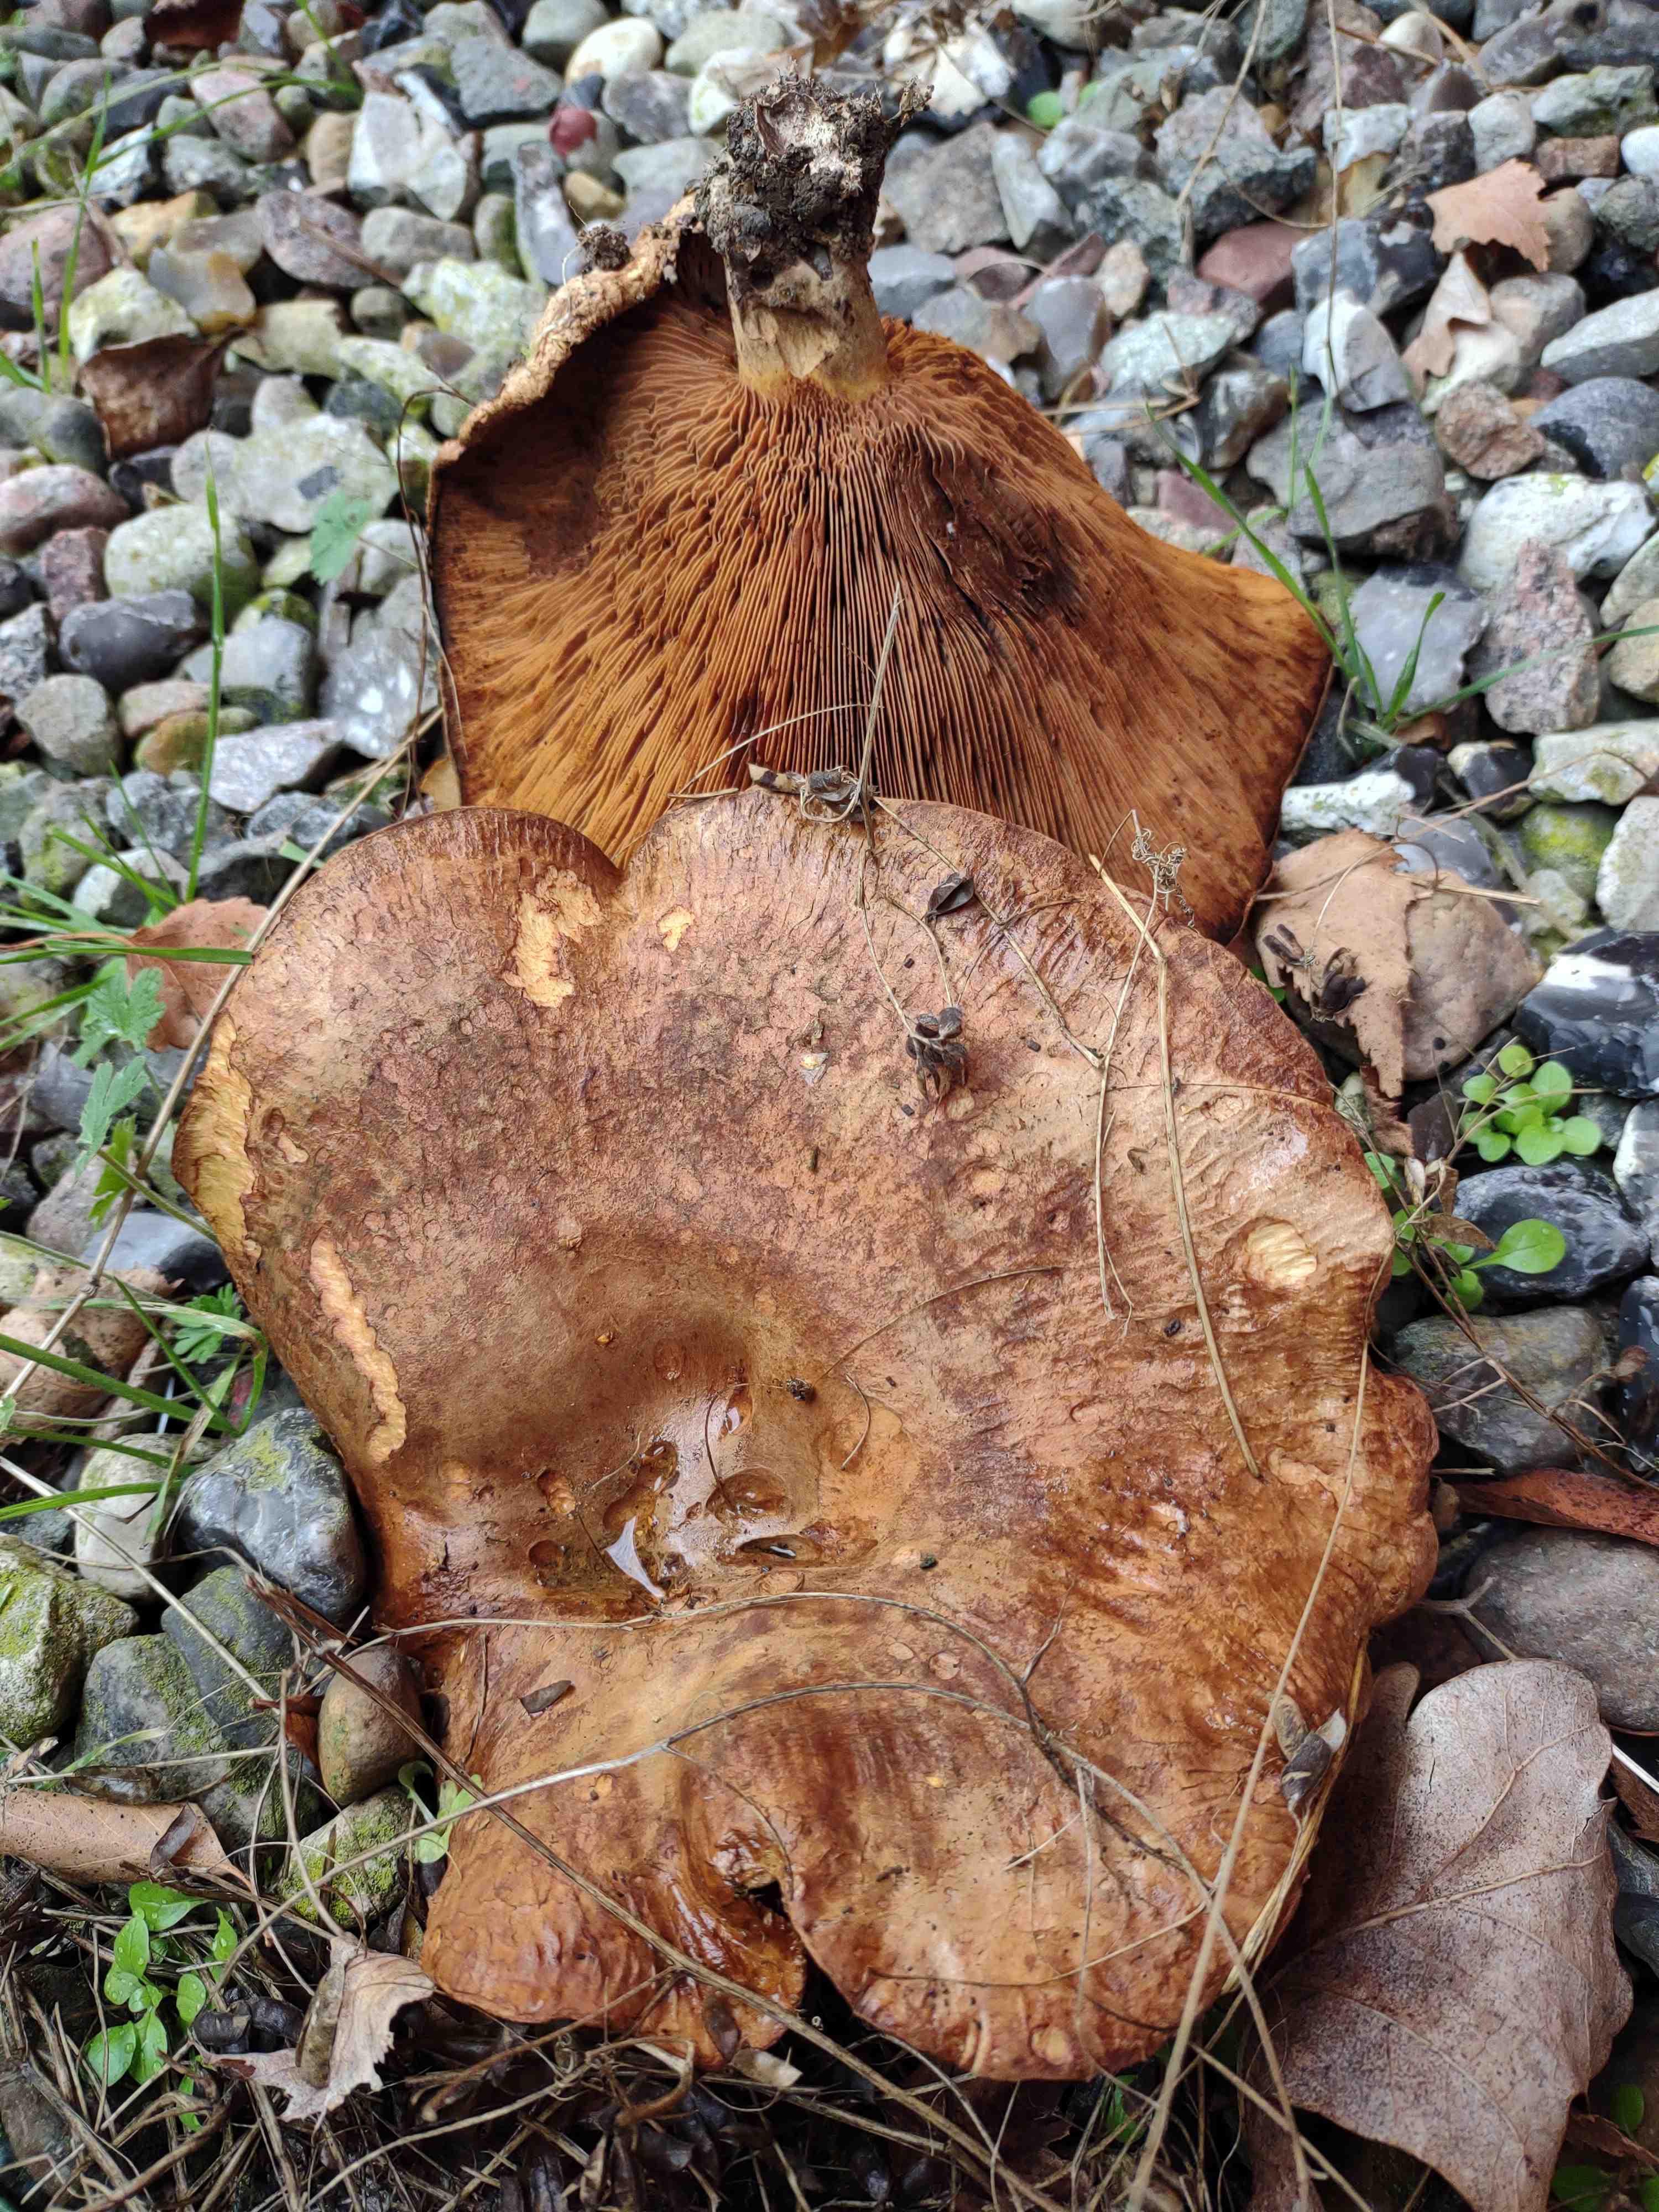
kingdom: Fungi
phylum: Basidiomycota
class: Agaricomycetes
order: Boletales
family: Paxillaceae
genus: Paxillus
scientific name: Paxillus
